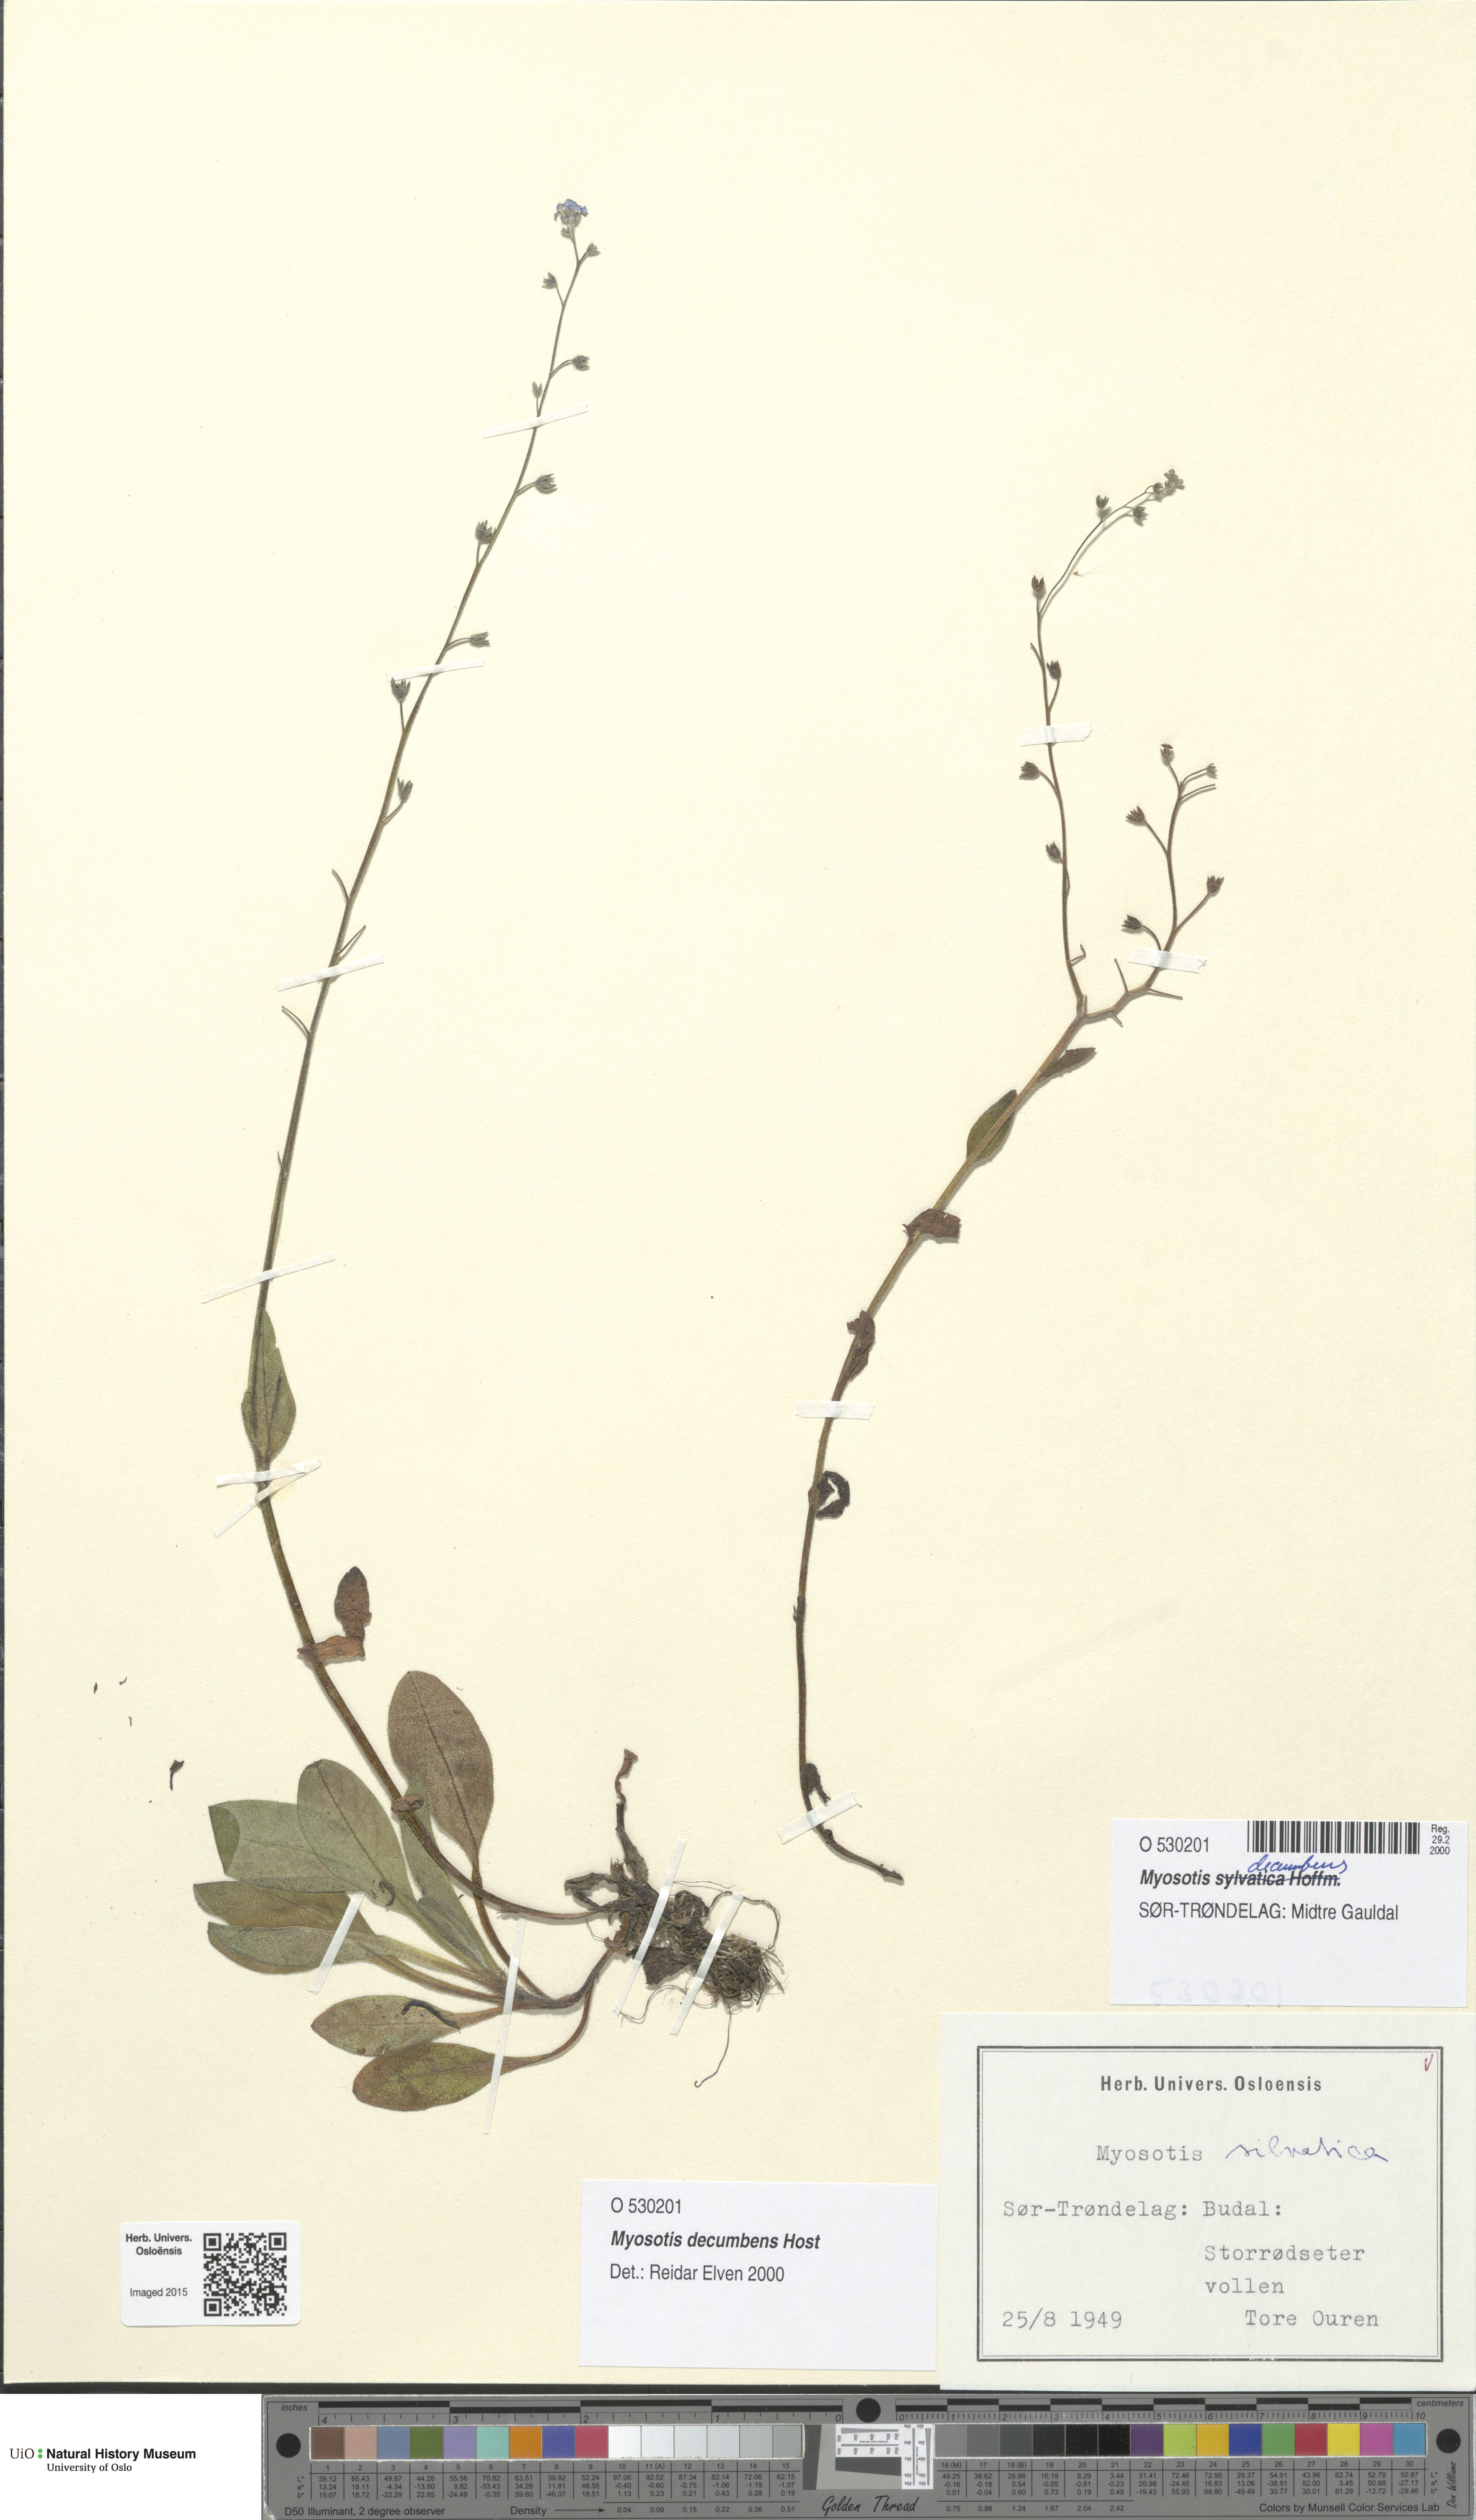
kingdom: Plantae
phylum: Tracheophyta
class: Magnoliopsida
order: Boraginales
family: Boraginaceae
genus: Myosotis
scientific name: Myosotis decumbens
